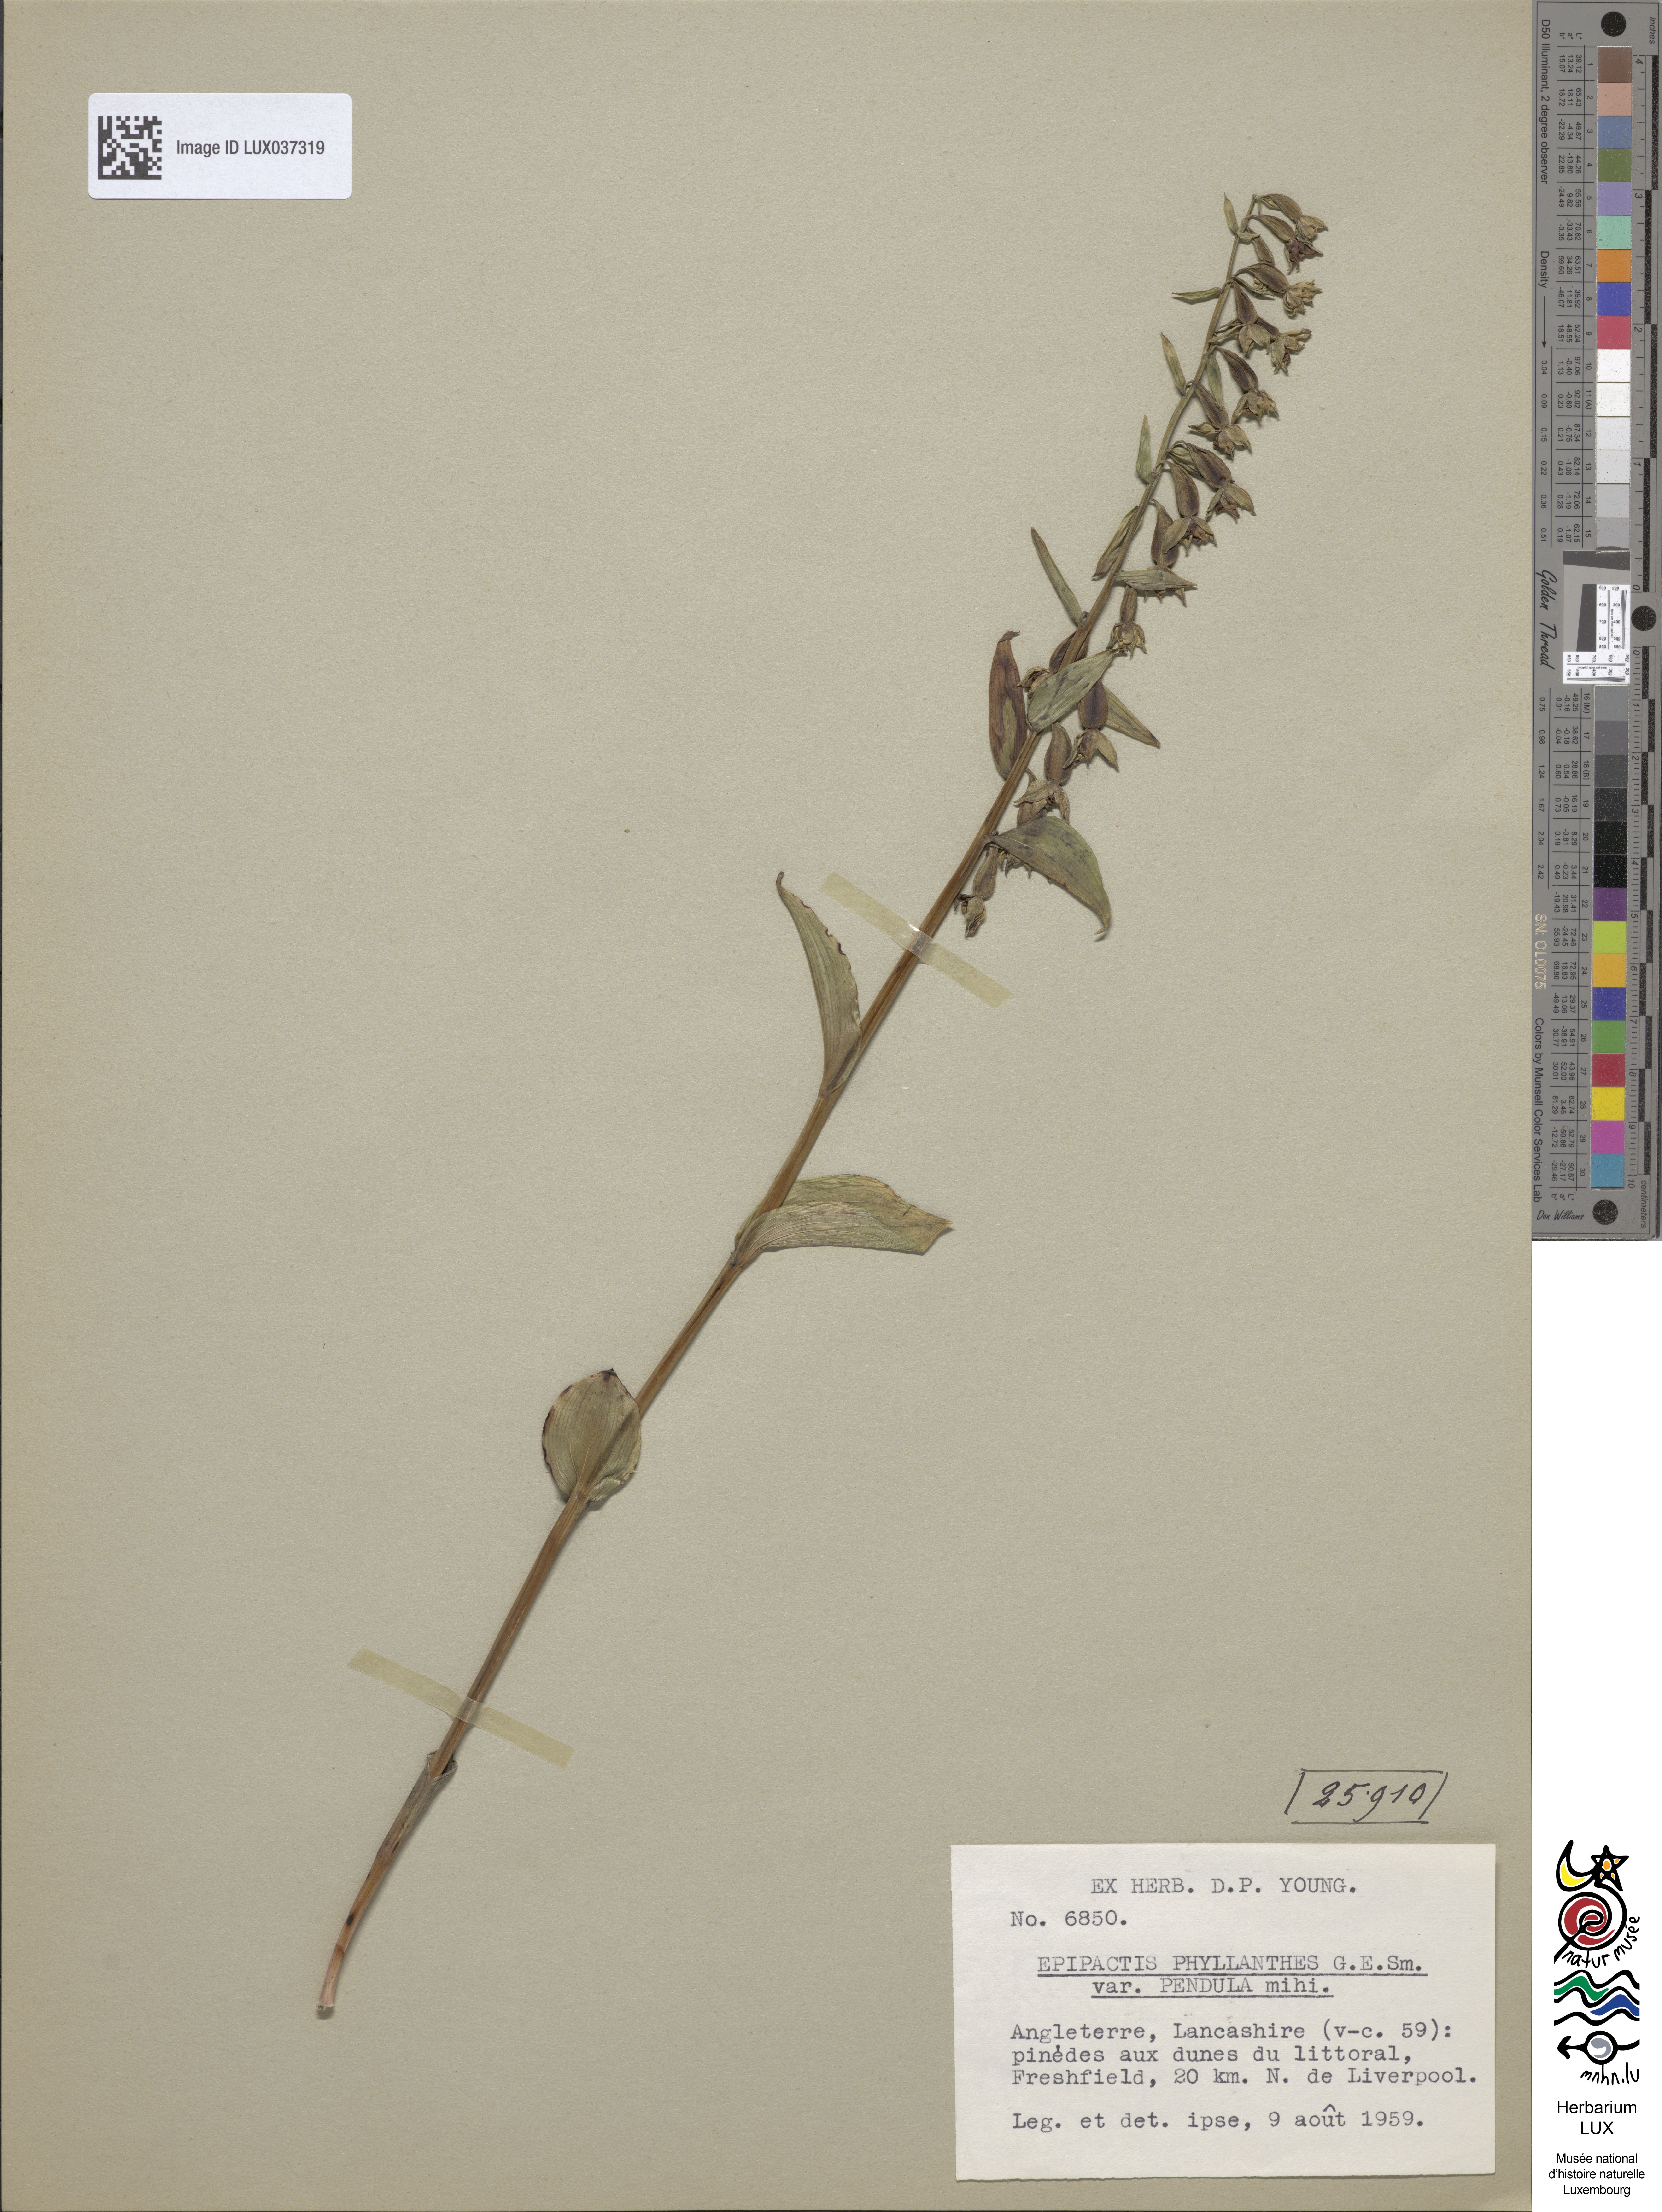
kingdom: Plantae
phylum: Tracheophyta
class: Liliopsida
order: Asparagales
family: Orchidaceae
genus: Epipactis
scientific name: Epipactis phyllanthes
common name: Green-flowered helleborine
